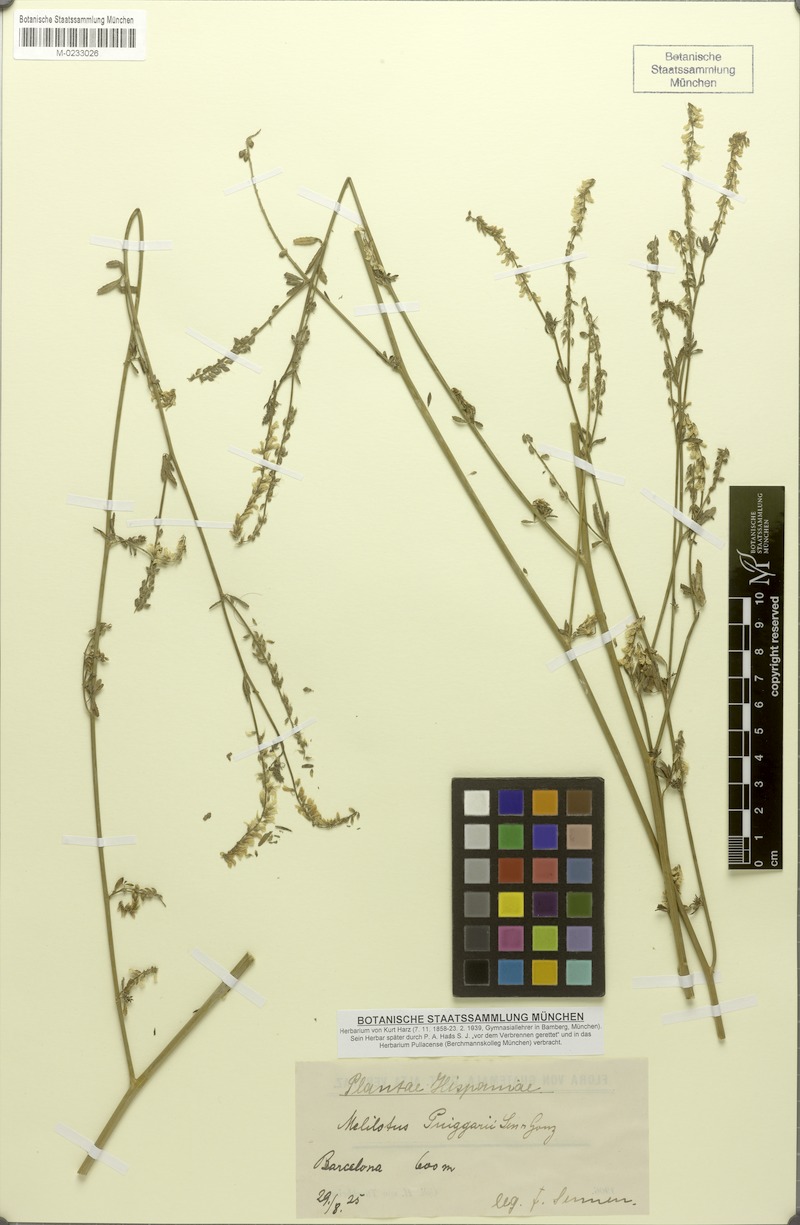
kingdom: Plantae
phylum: Tracheophyta
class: Magnoliopsida
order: Fabales
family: Fabaceae
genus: Melilotus
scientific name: Melilotus altissimus
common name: Tall melilot
